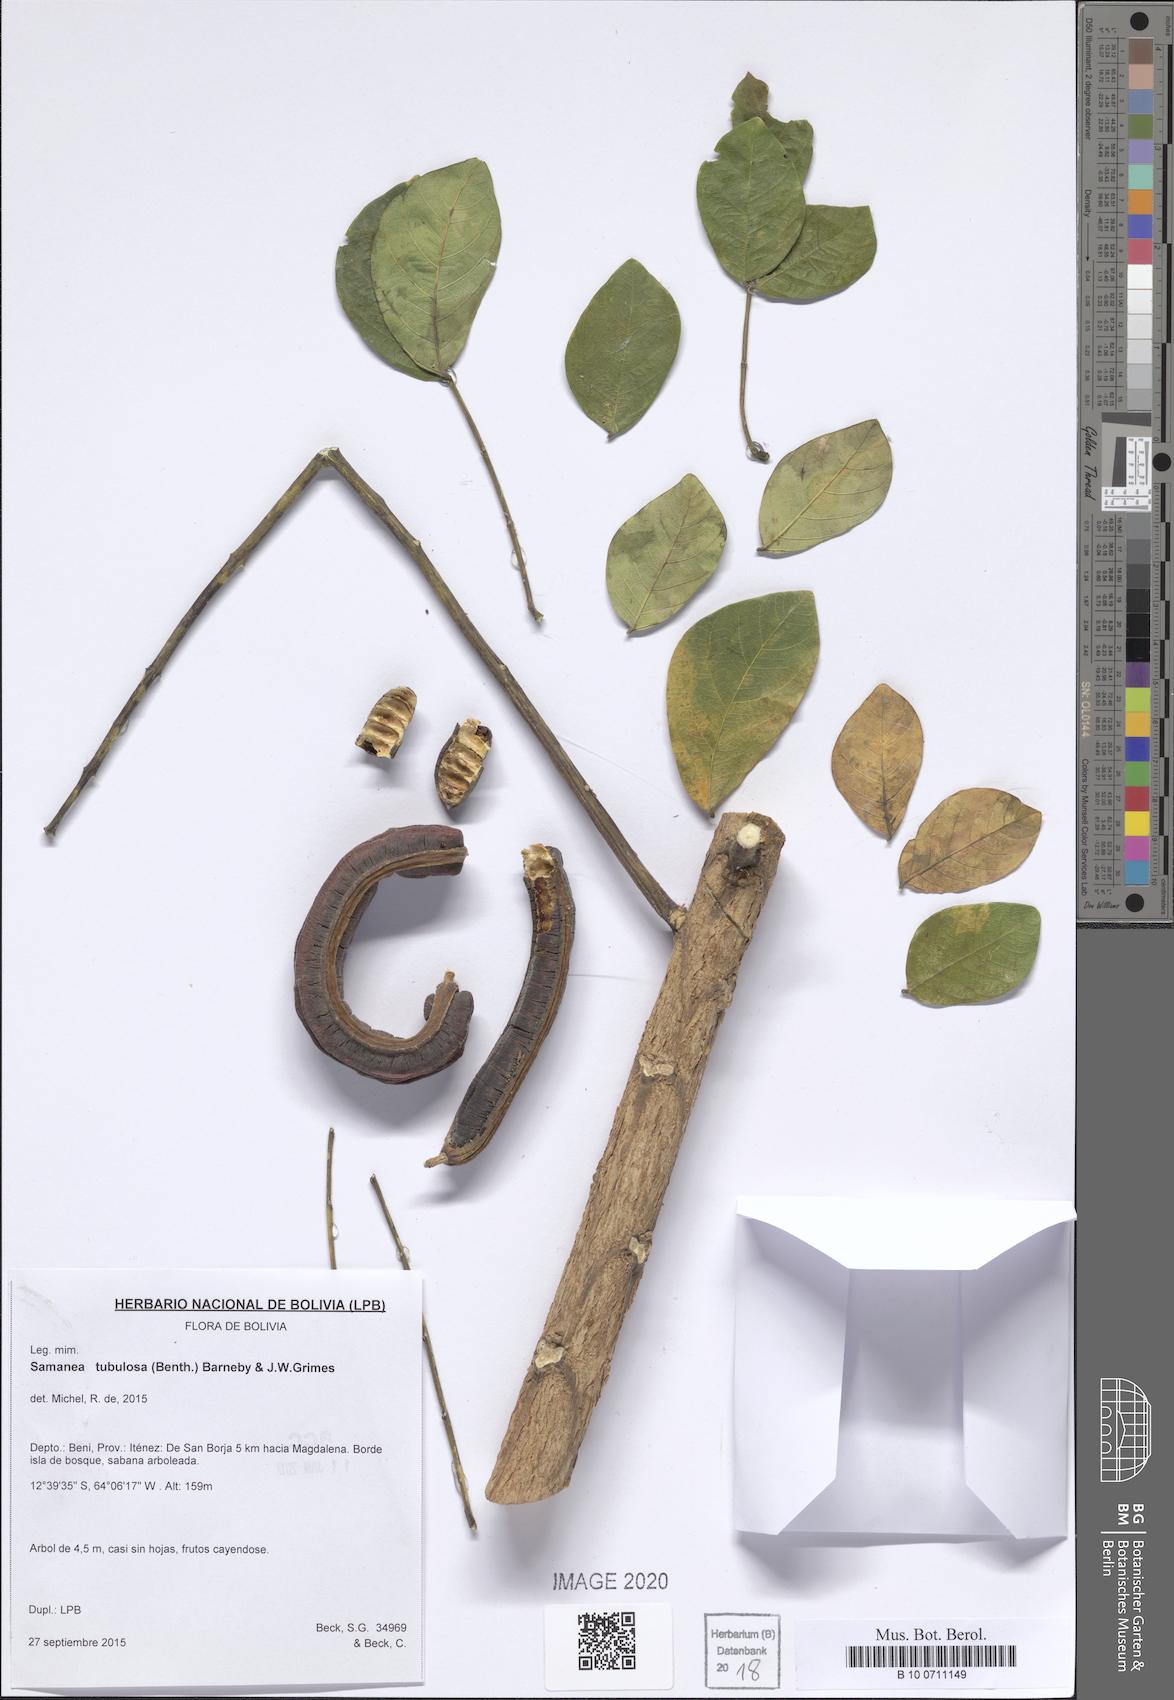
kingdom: Plantae
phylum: Tracheophyta
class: Magnoliopsida
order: Fabales
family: Fabaceae
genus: Samanea
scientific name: Samanea tubulosa
